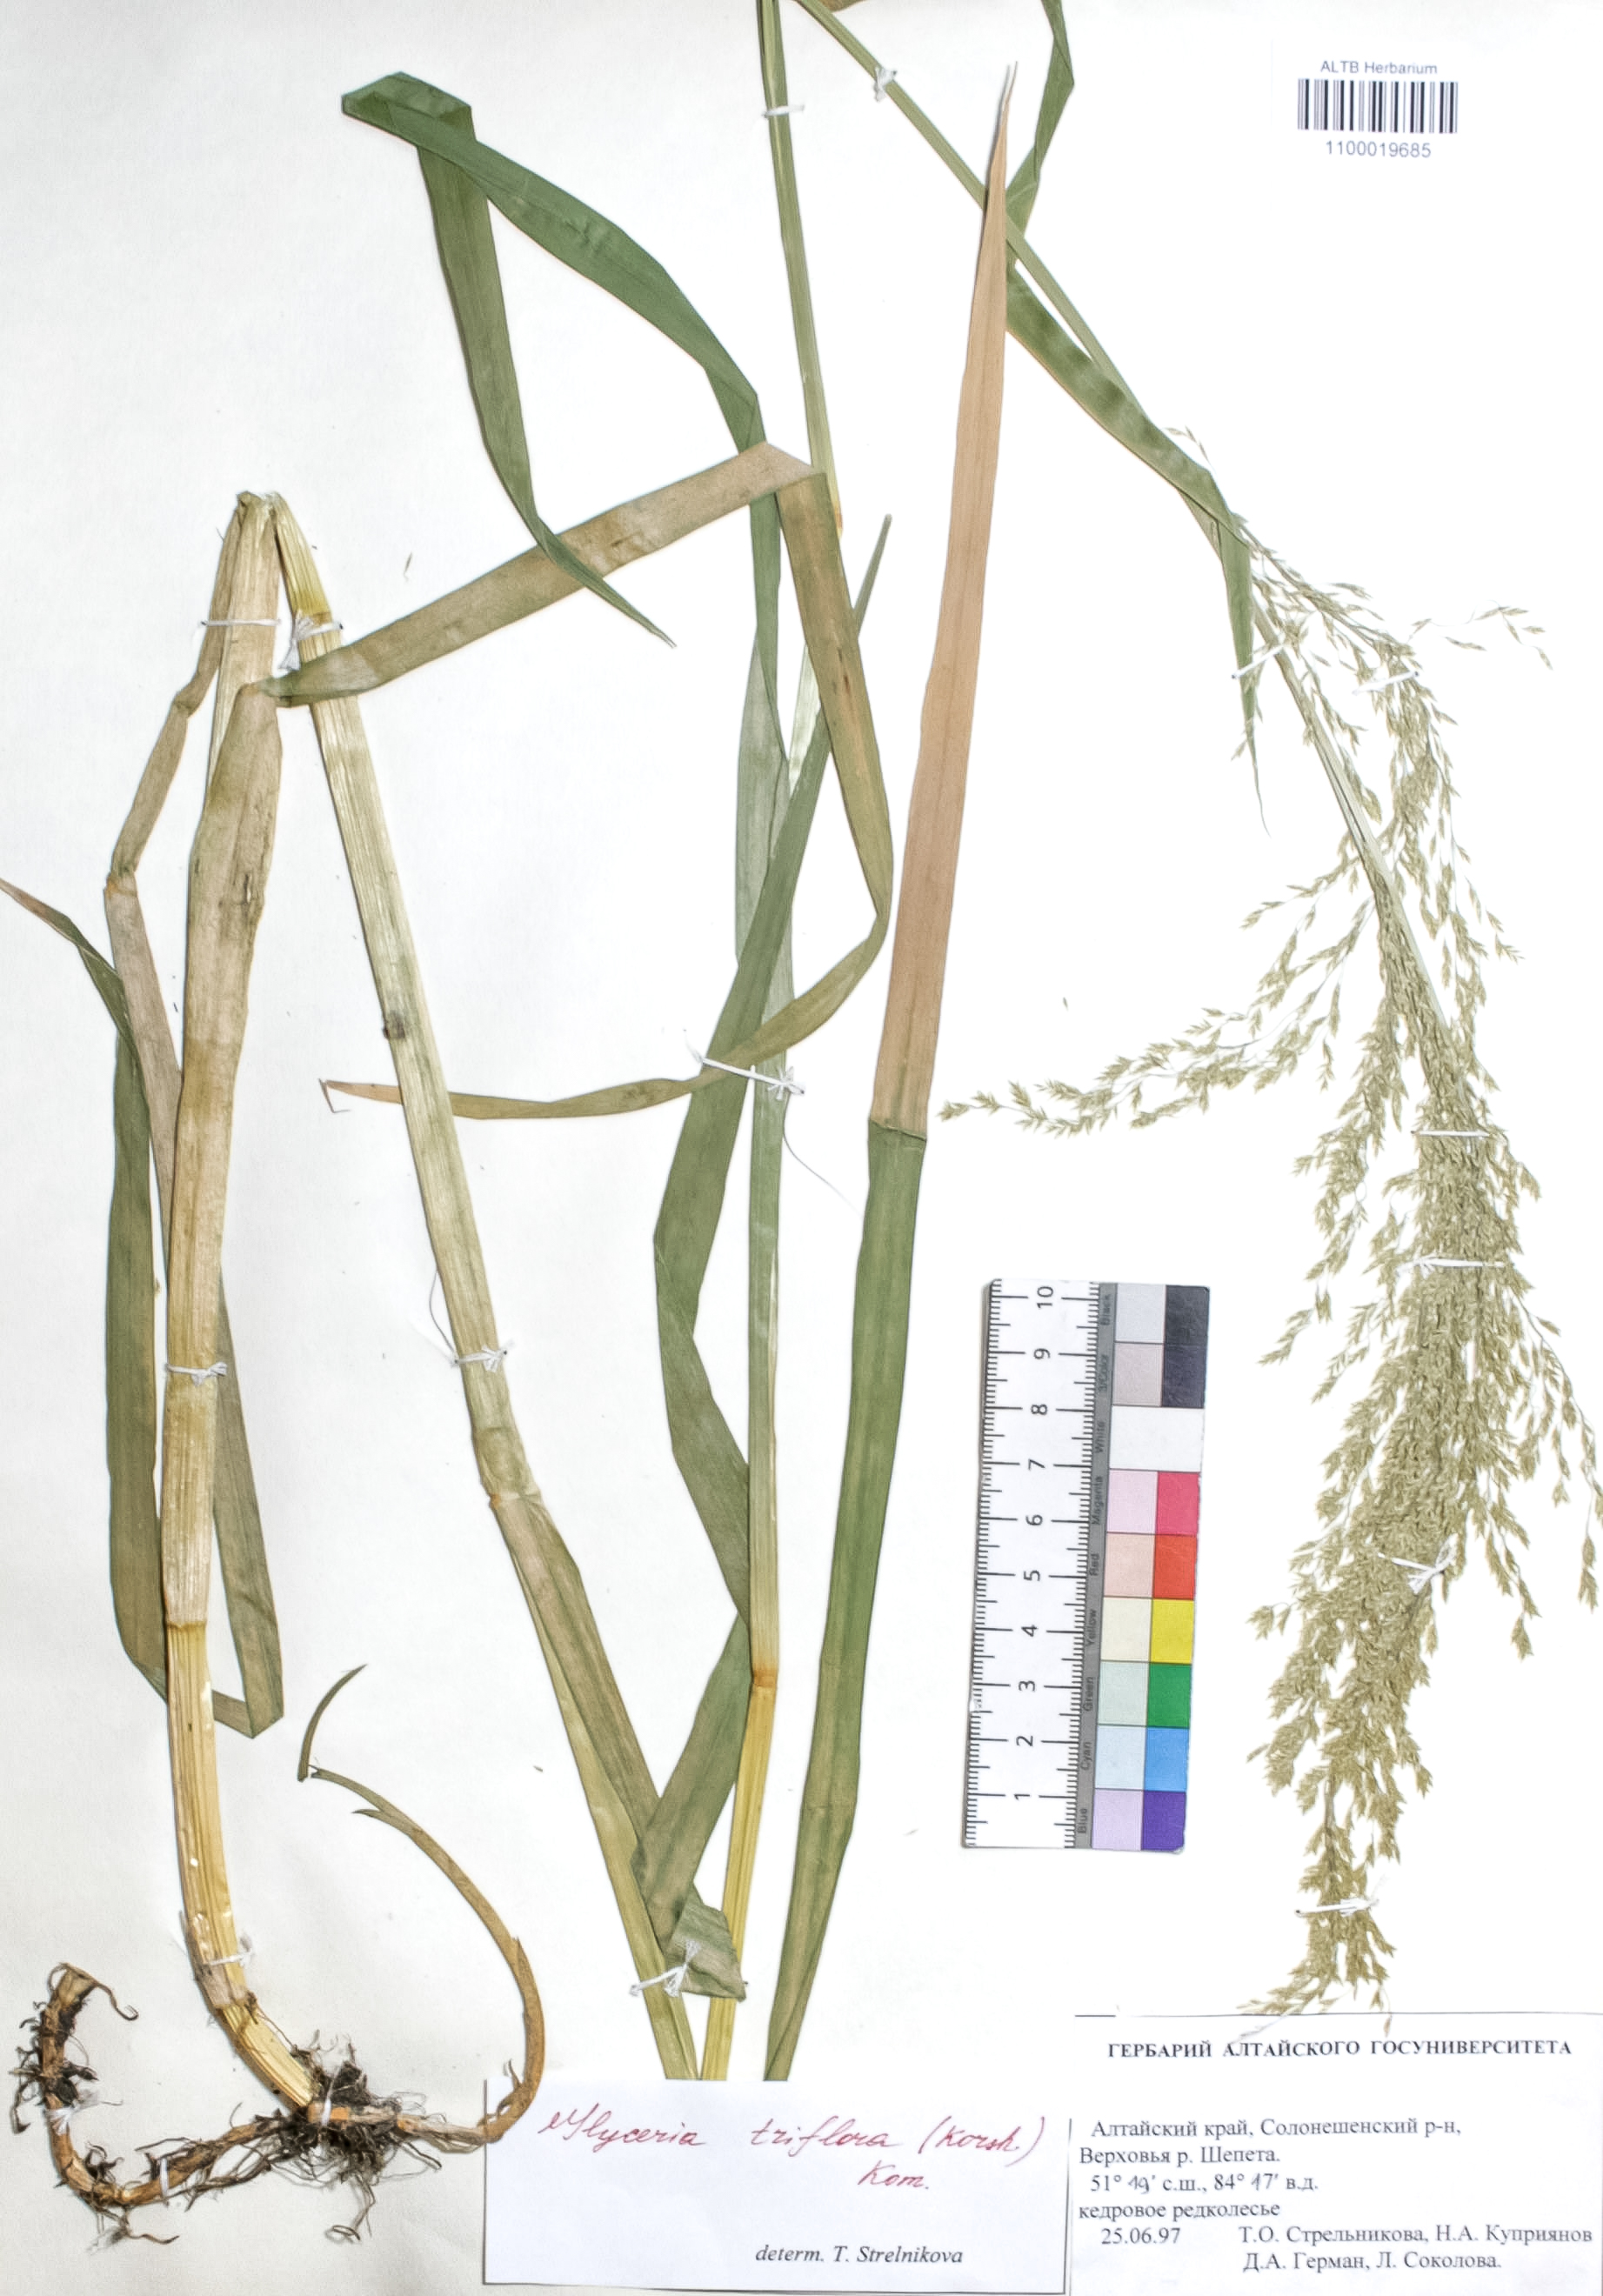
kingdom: Plantae
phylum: Tracheophyta
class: Liliopsida
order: Poales
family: Poaceae
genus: Glyceria
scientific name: Glyceria lithuanica
